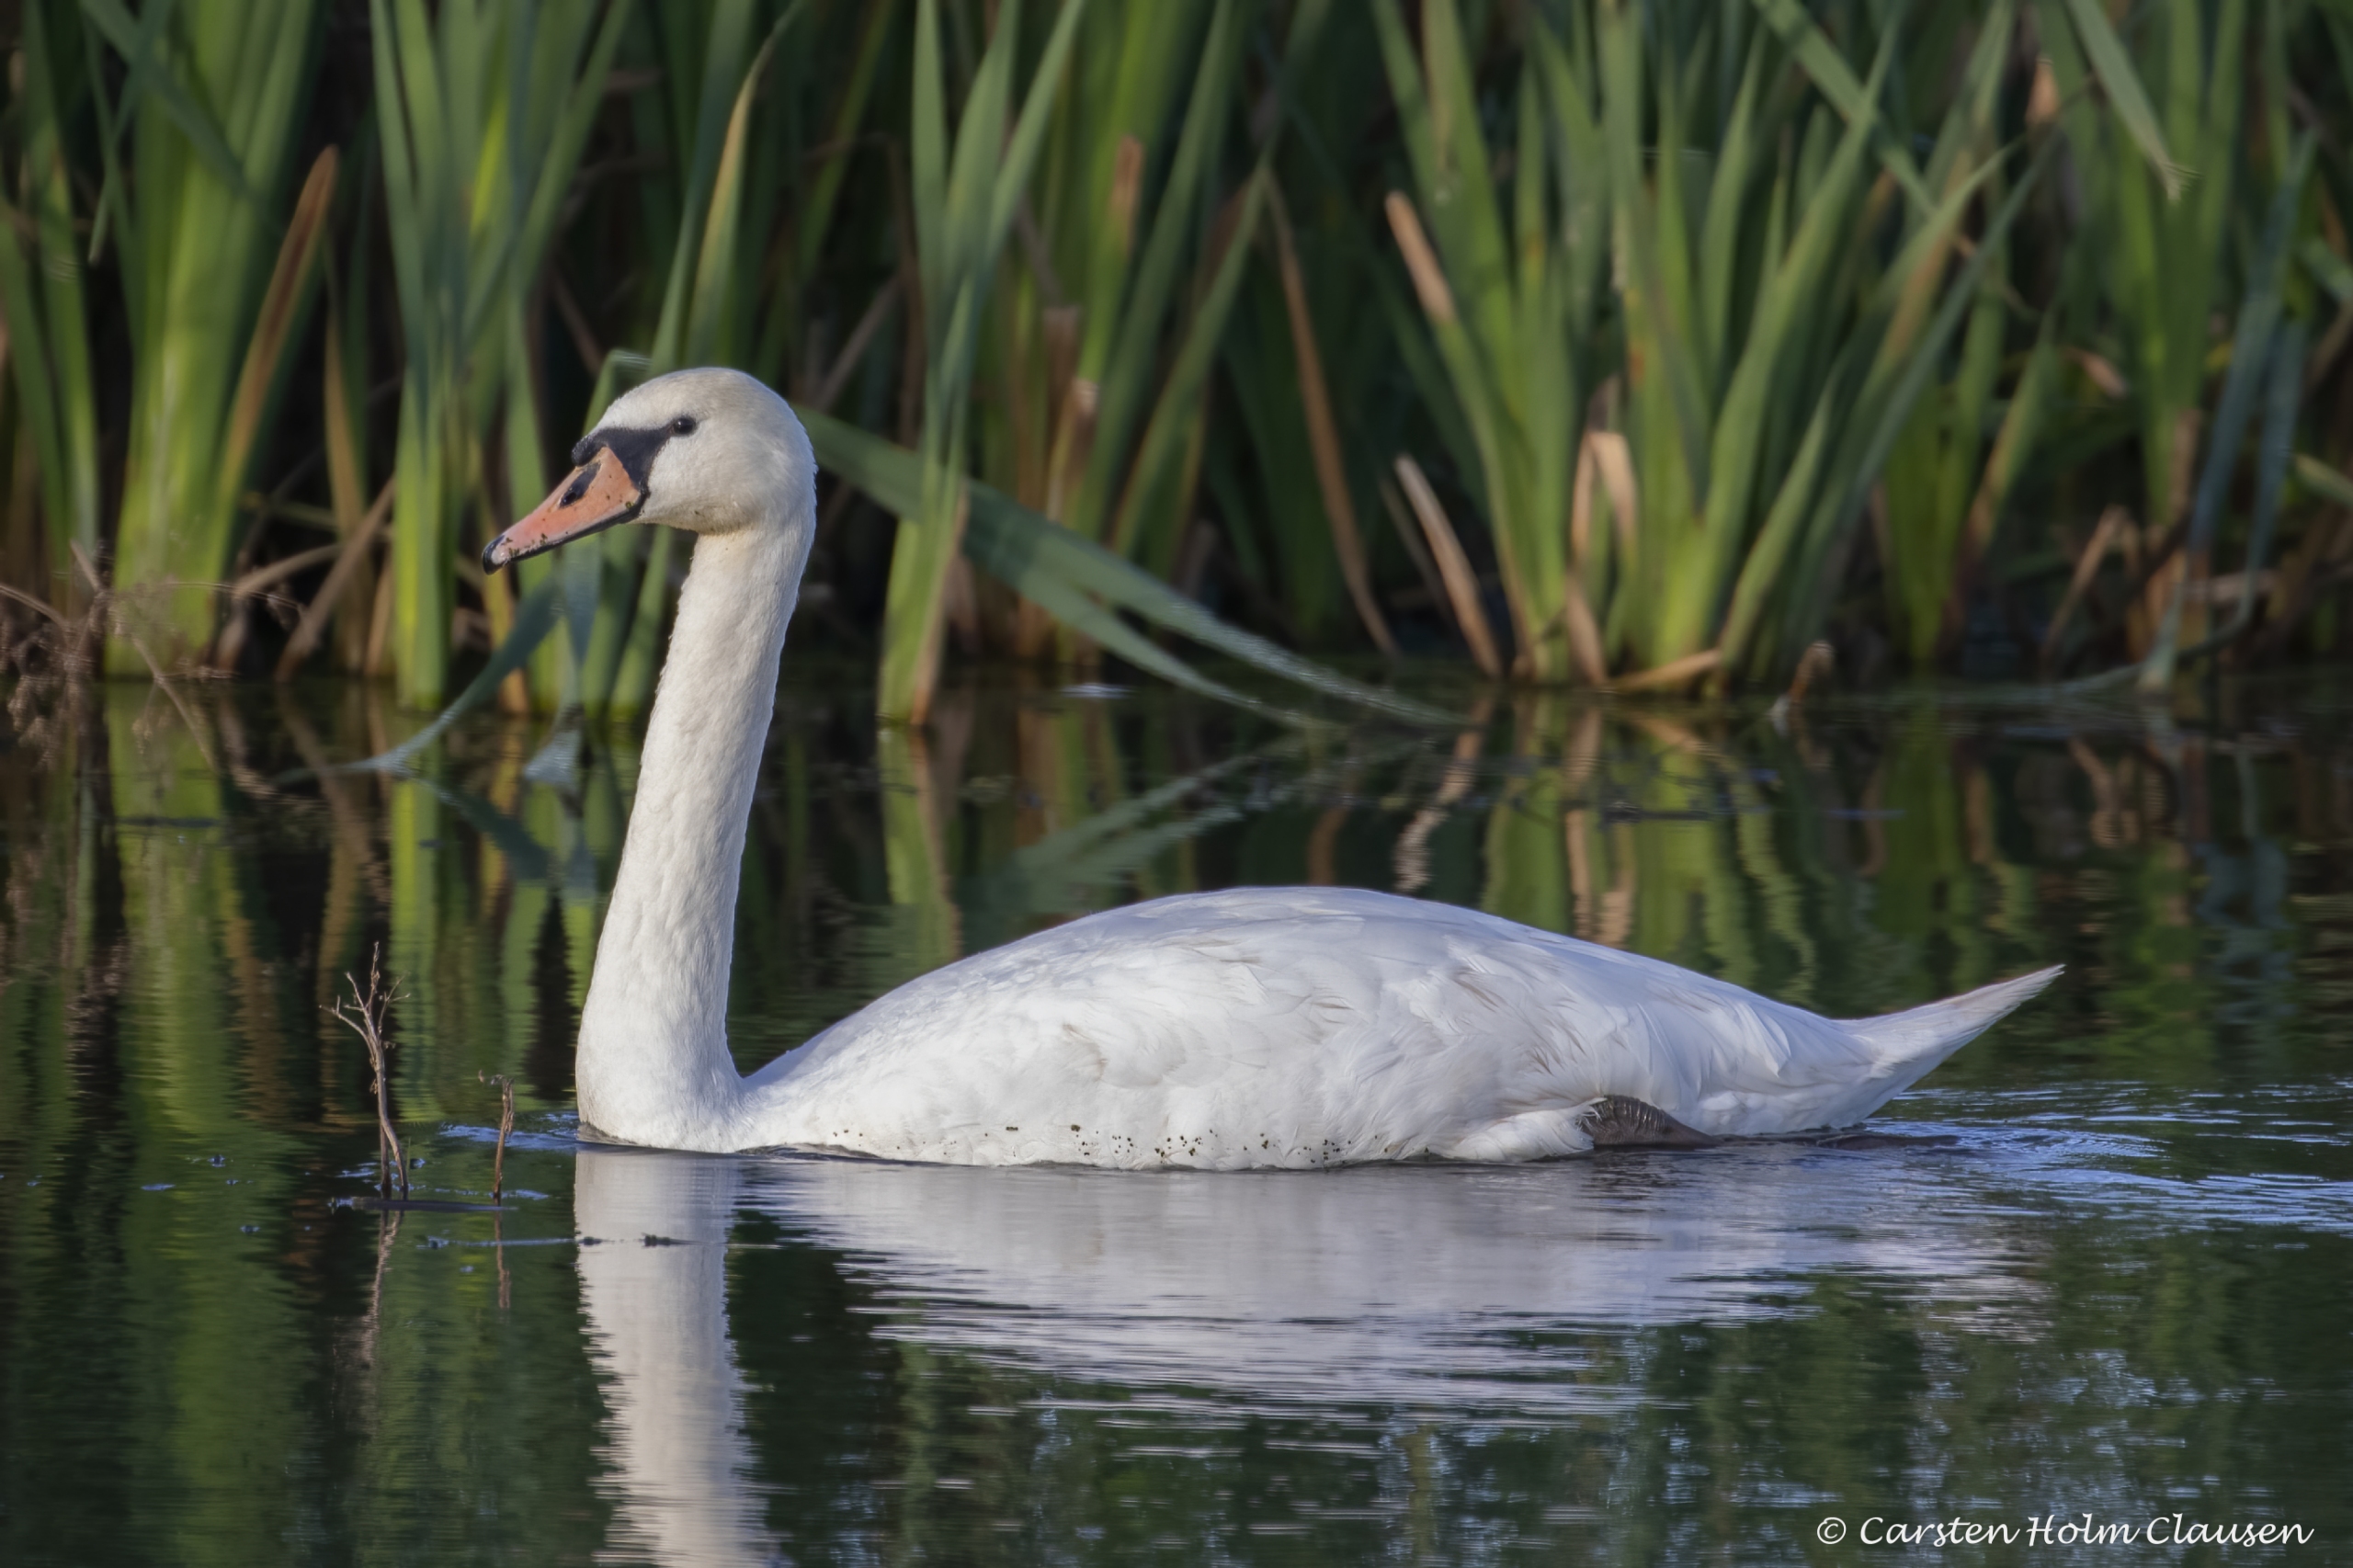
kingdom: Animalia
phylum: Chordata
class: Aves
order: Anseriformes
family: Anatidae
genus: Cygnus
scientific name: Cygnus olor
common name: Knopsvane
